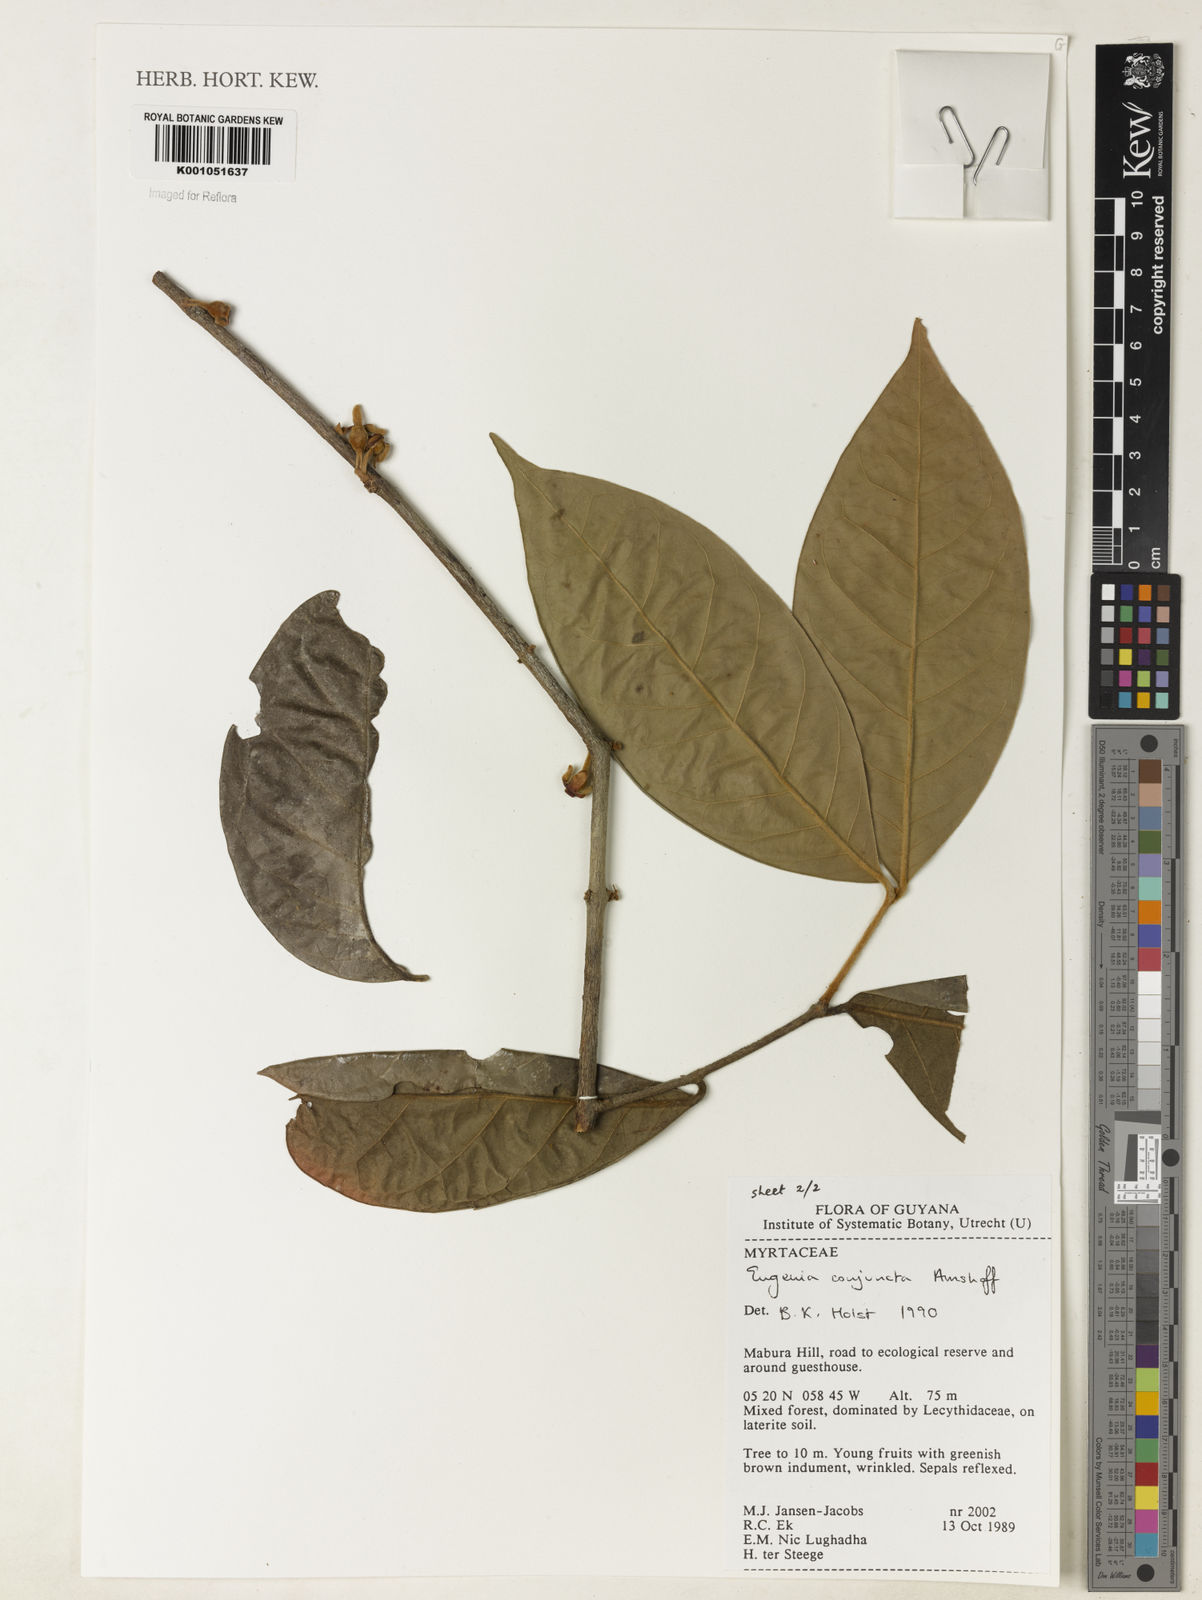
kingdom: Plantae
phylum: Tracheophyta
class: Magnoliopsida
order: Myrtales
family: Myrtaceae
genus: Eugenia
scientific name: Eugenia conjuncta
